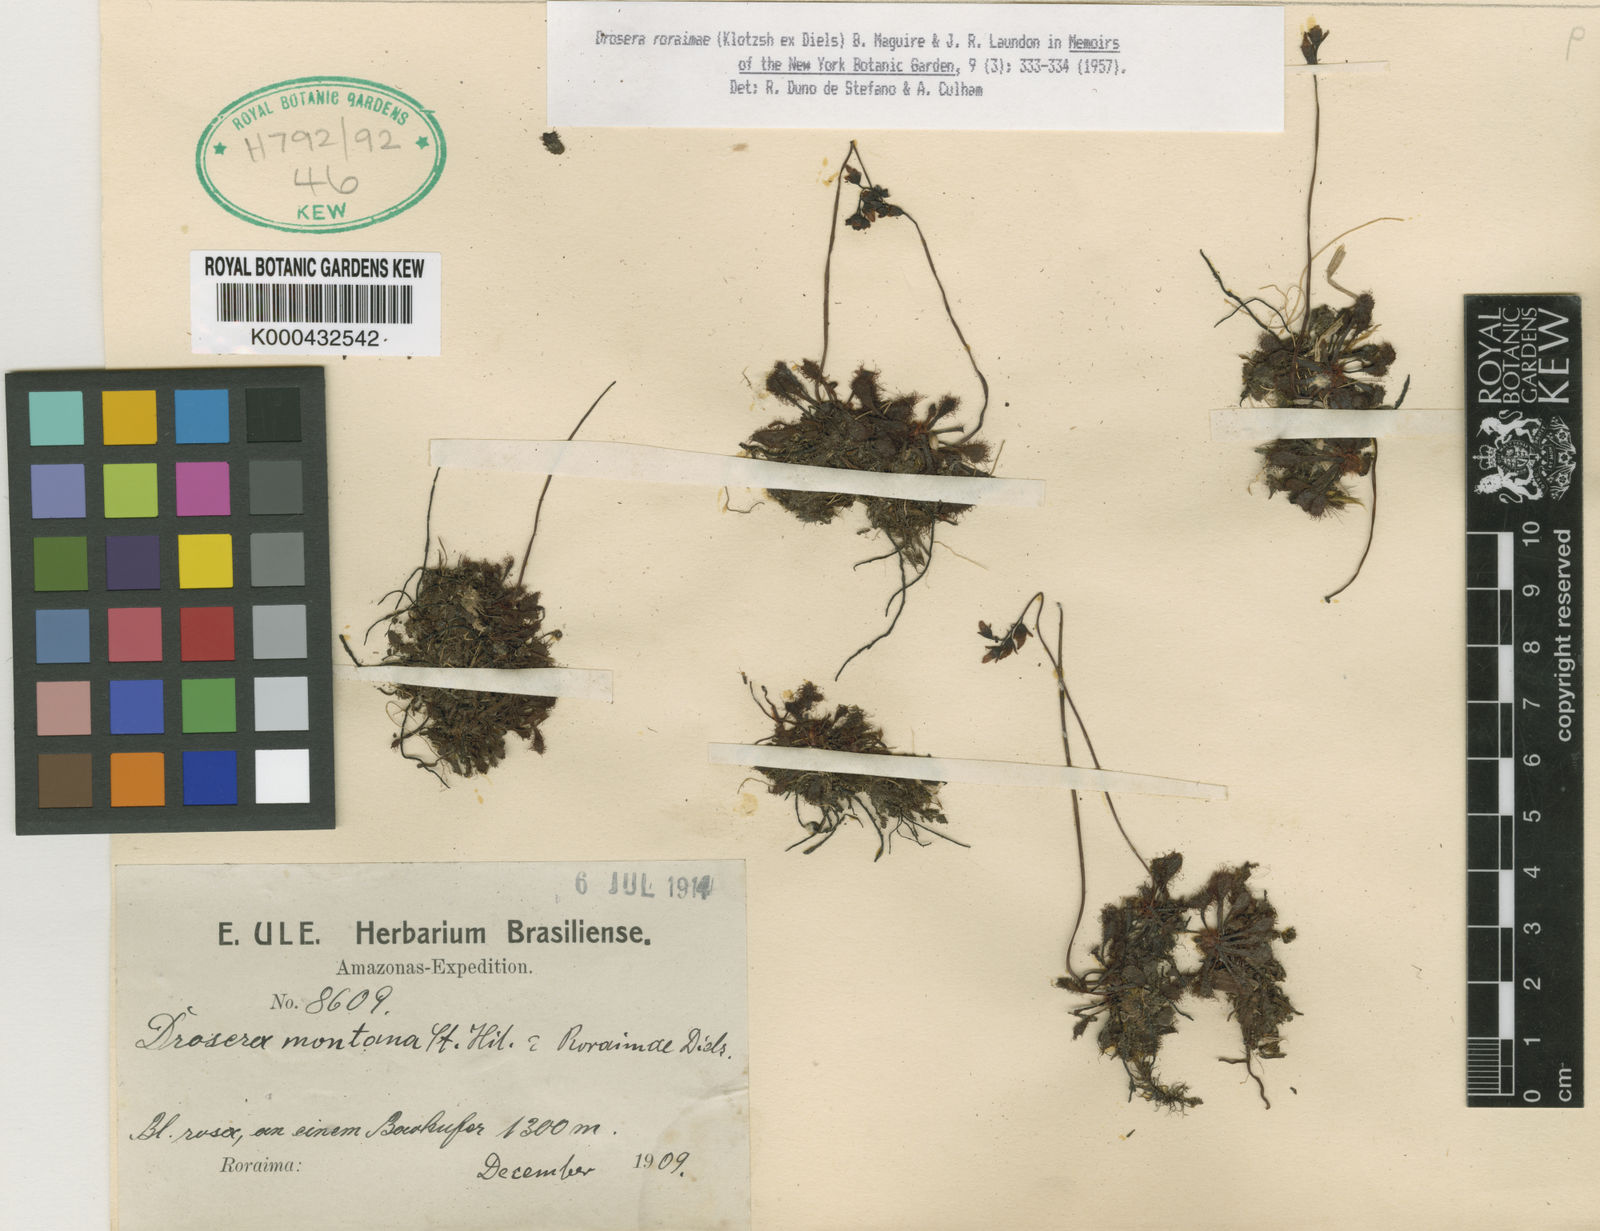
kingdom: Plantae
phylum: Tracheophyta
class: Magnoliopsida
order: Caryophyllales
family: Droseraceae
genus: Drosera
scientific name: Drosera montana
